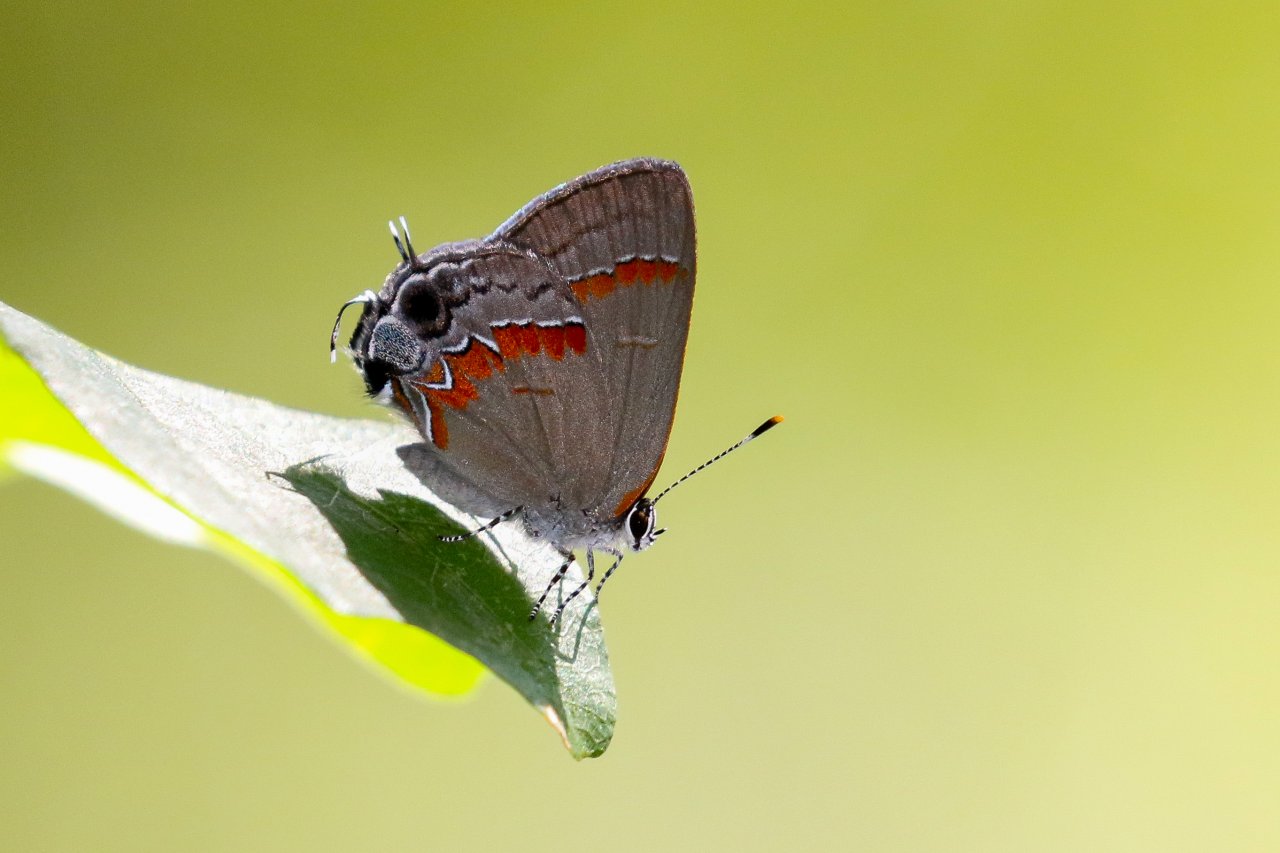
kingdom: Animalia
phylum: Arthropoda
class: Insecta
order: Lepidoptera
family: Lycaenidae
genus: Calycopis
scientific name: Calycopis cecrops
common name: Red-banded Hairstreak
